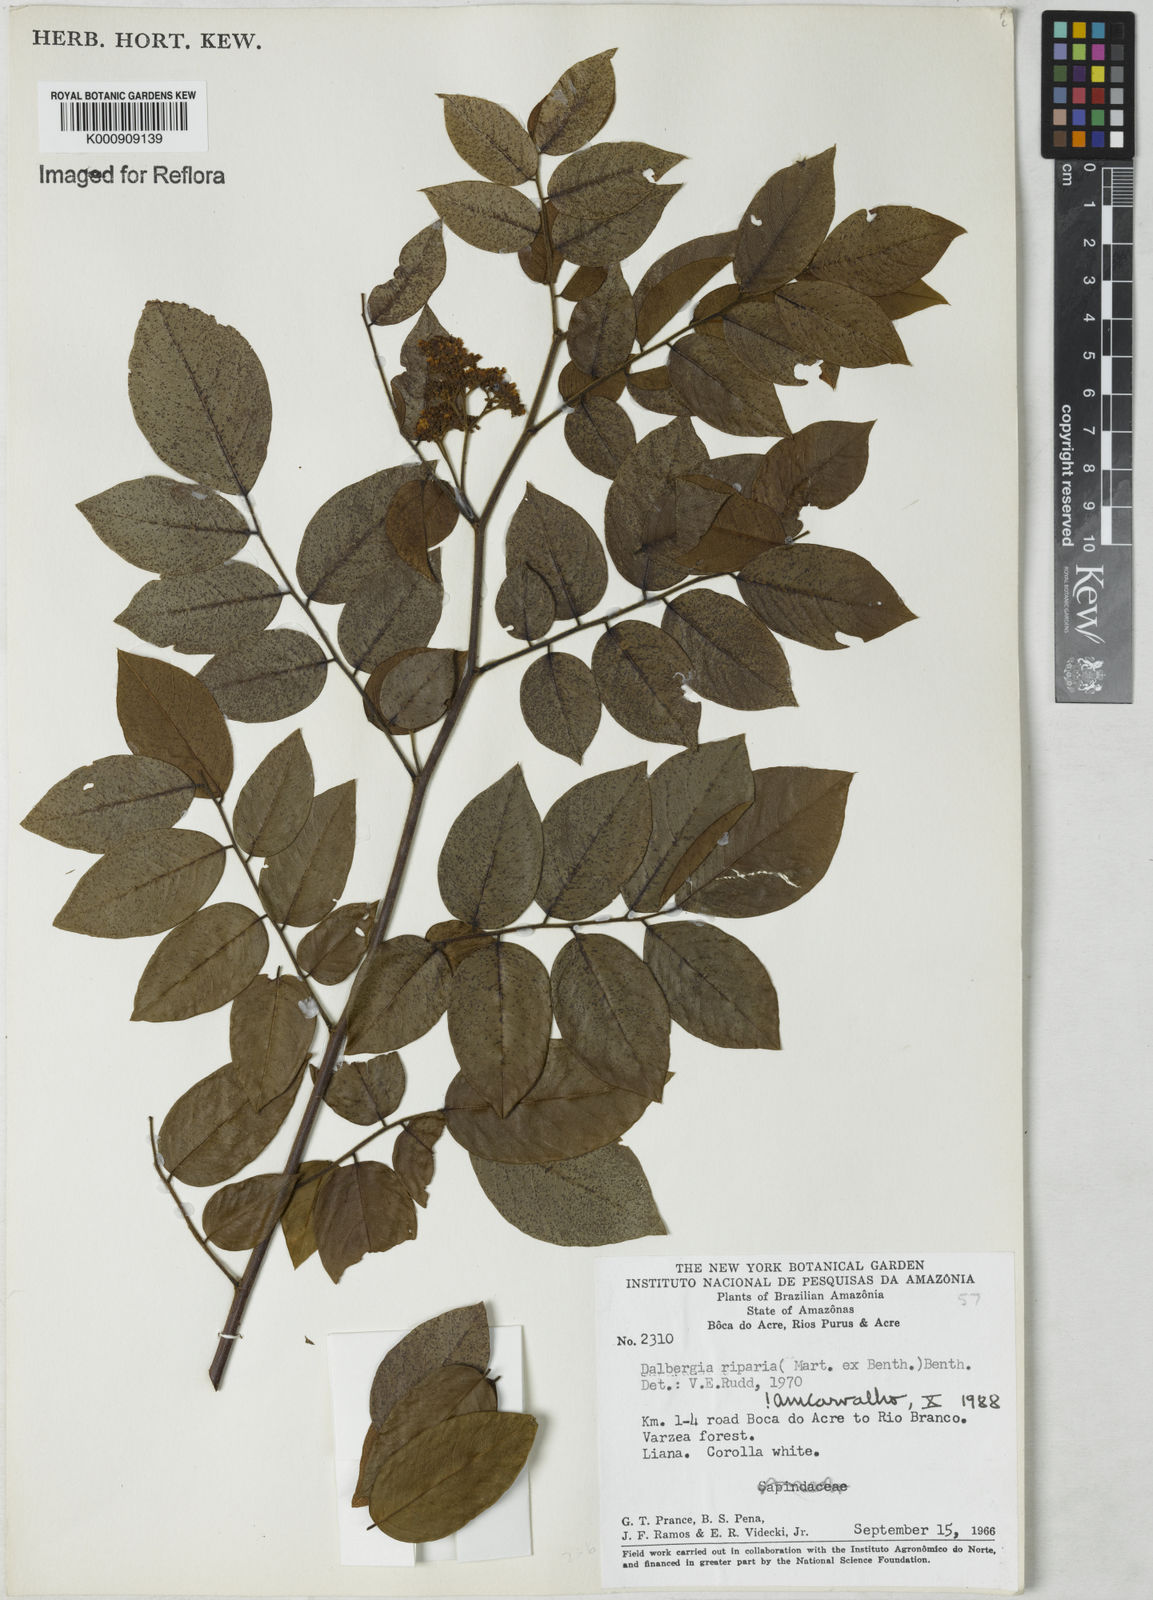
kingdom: Plantae
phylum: Tracheophyta
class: Magnoliopsida
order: Fabales
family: Fabaceae
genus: Dalbergia
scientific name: Dalbergia riparia
